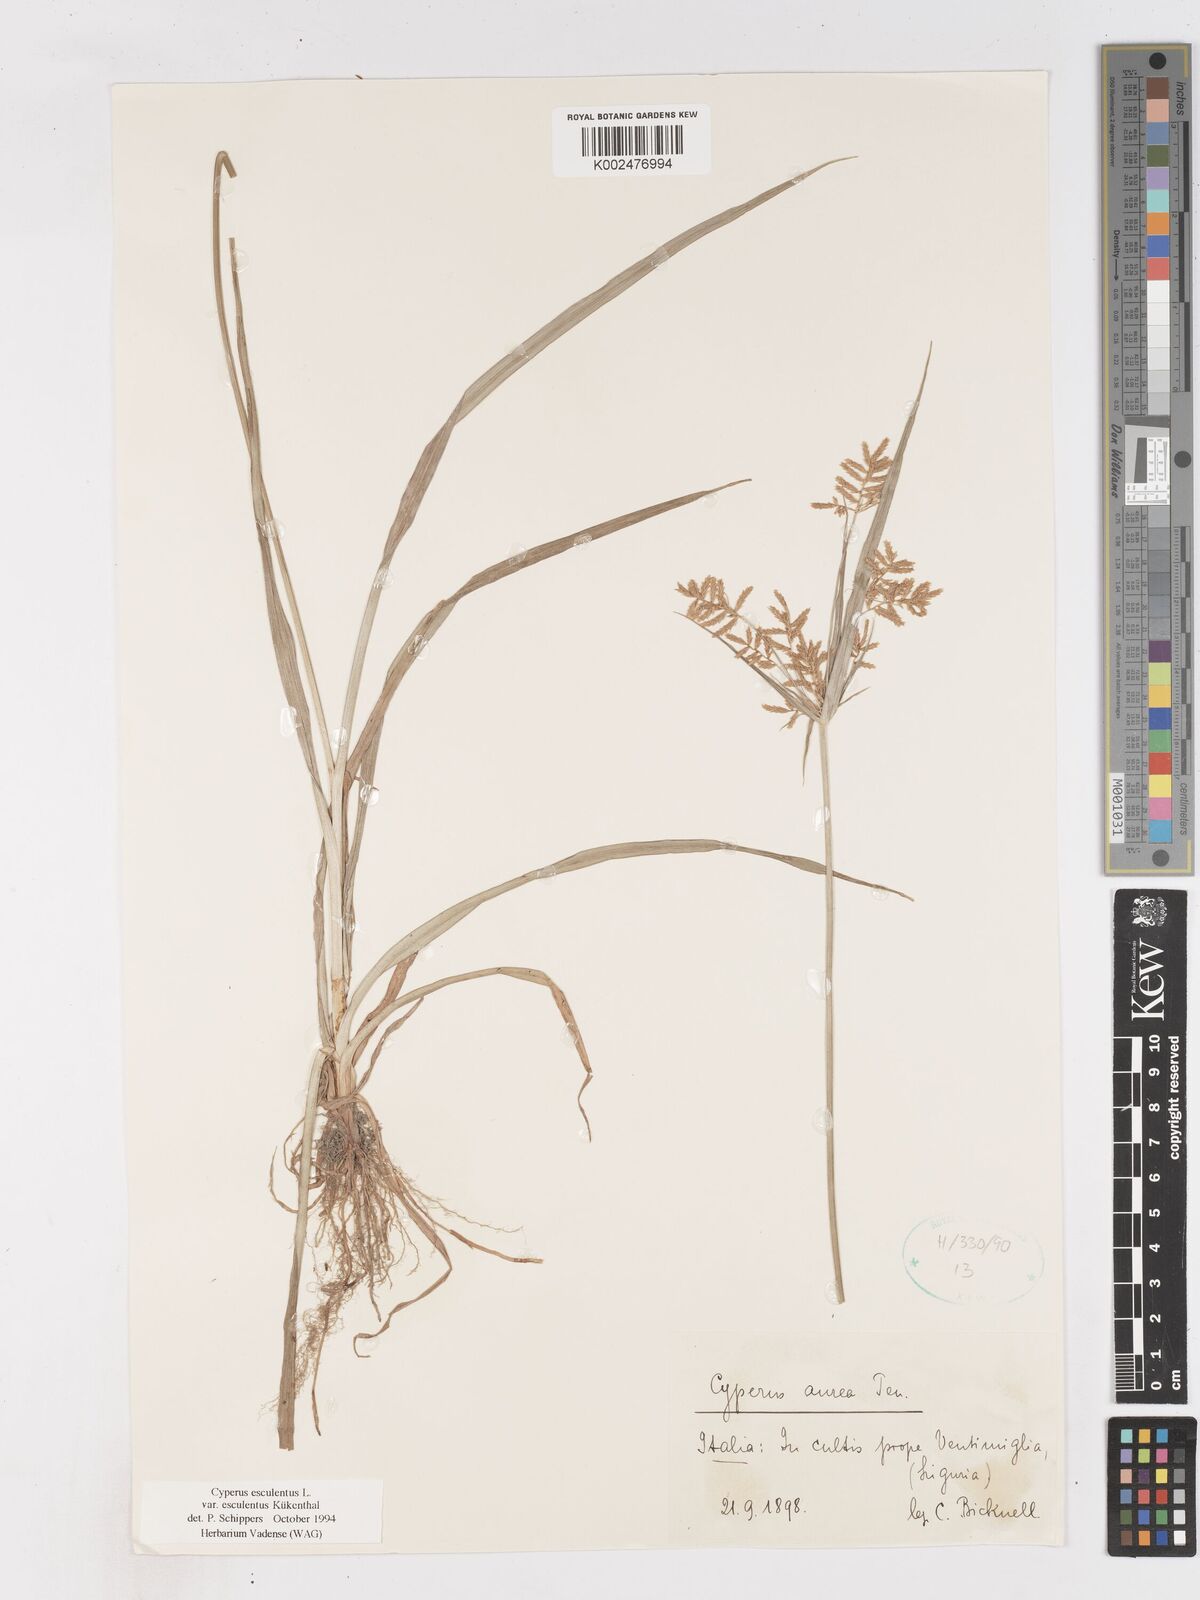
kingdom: Plantae
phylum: Tracheophyta
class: Liliopsida
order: Poales
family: Cyperaceae
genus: Cyperus
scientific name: Cyperus esculentus
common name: Yellow nutsedge
